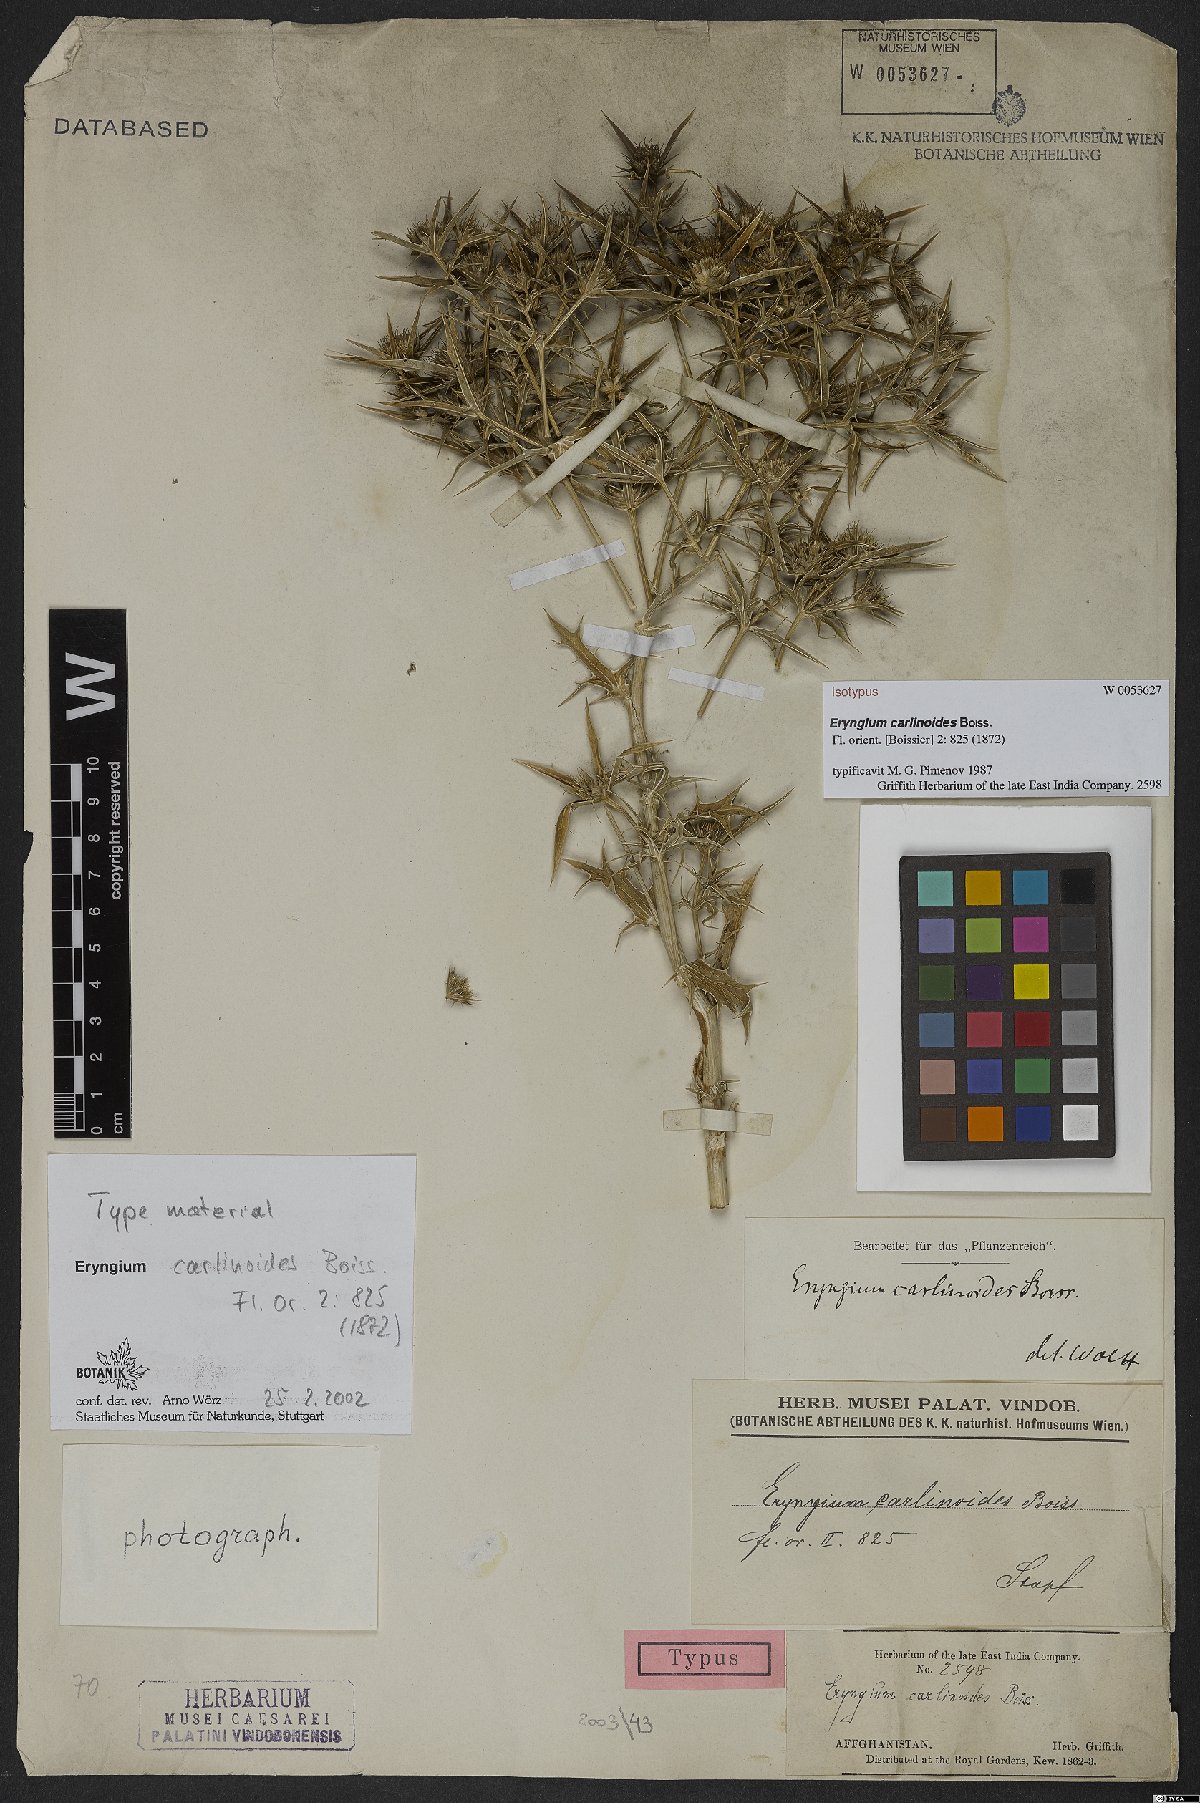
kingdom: Plantae
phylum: Tracheophyta
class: Magnoliopsida
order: Apiales
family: Apiaceae
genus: Eryngium
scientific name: Eryngium carlinoides
